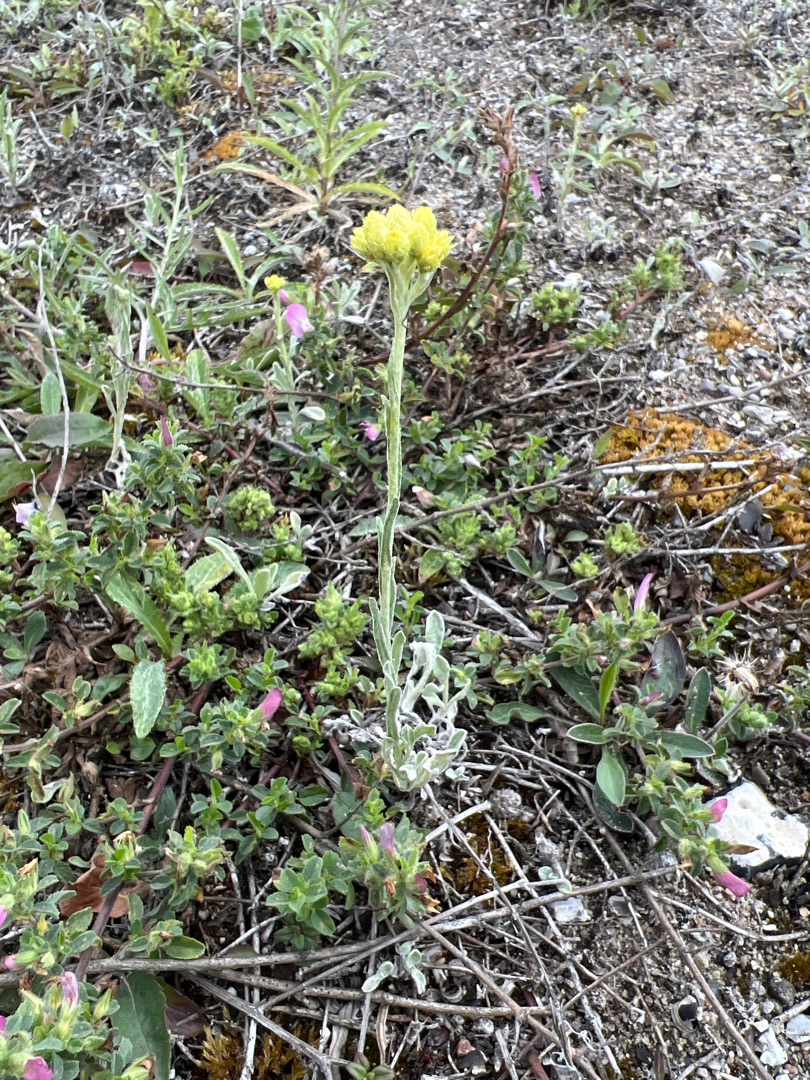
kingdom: Plantae
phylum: Tracheophyta
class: Magnoliopsida
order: Asterales
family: Asteraceae
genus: Helichrysum
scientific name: Helichrysum arenarium
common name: Gul evighedsblomst
